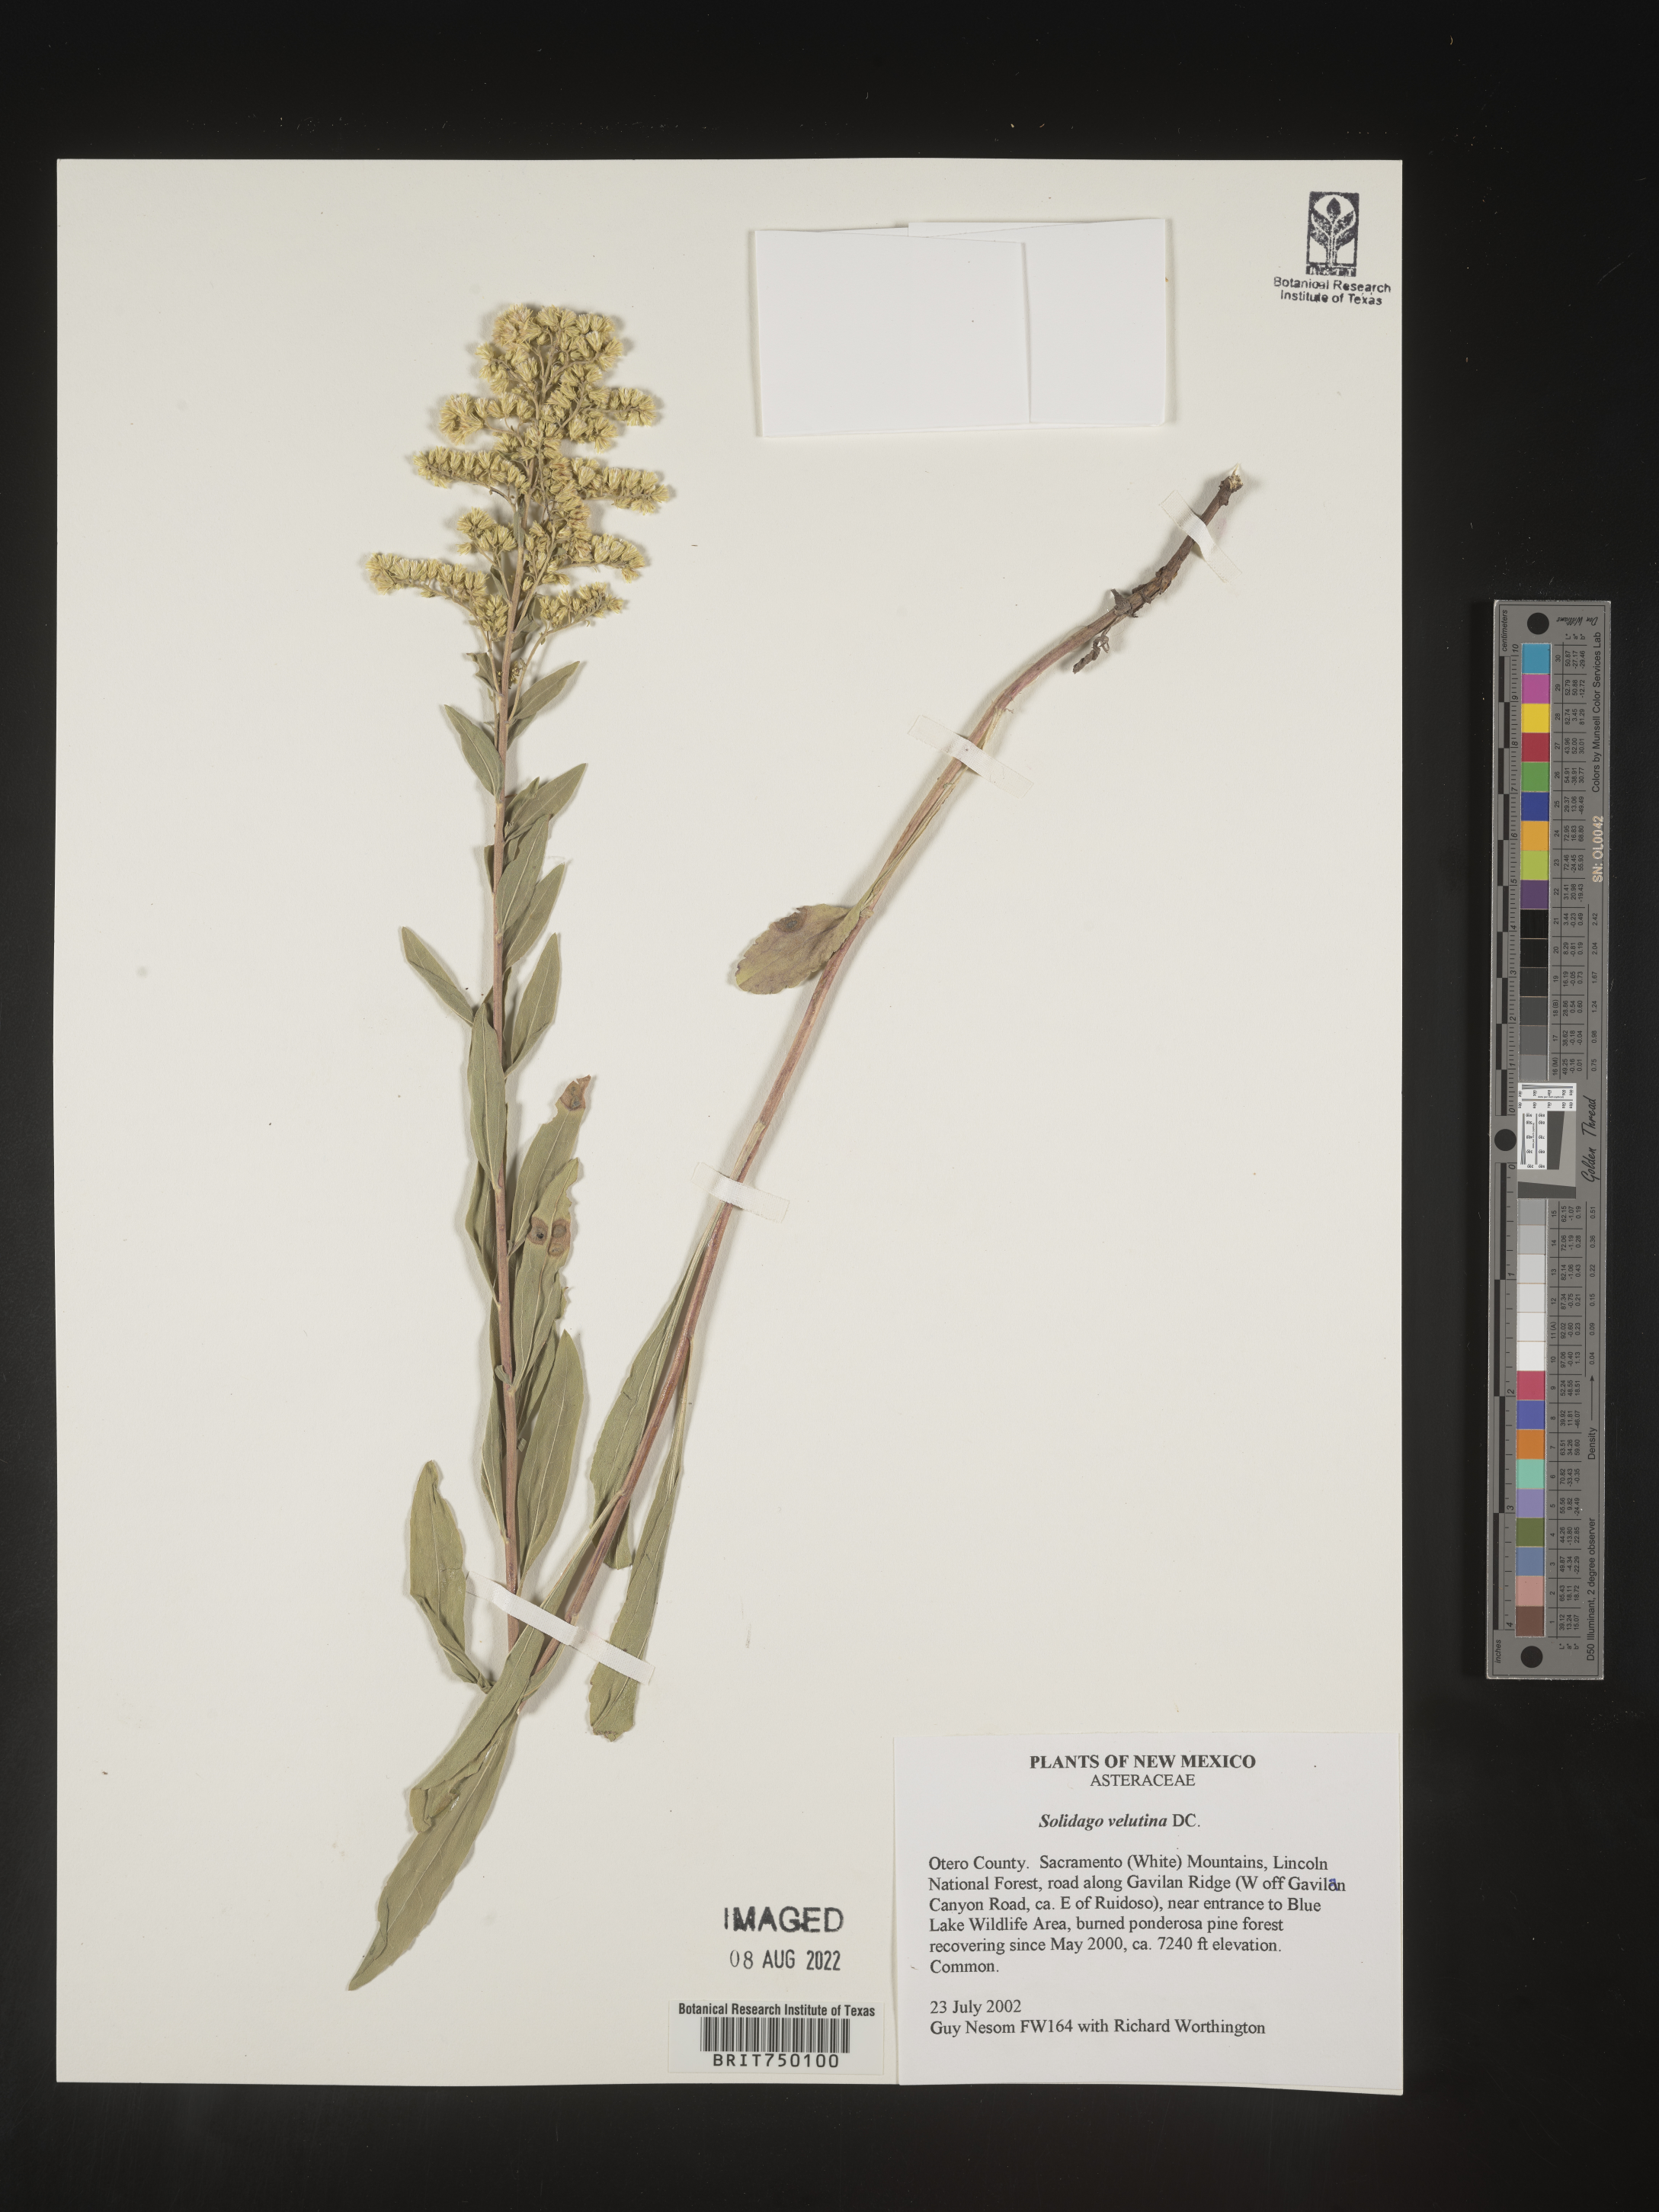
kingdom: Plantae
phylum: Tracheophyta
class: Magnoliopsida
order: Asterales
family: Asteraceae
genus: Solidago
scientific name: Solidago velutina
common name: Three-nerve goldenrod
